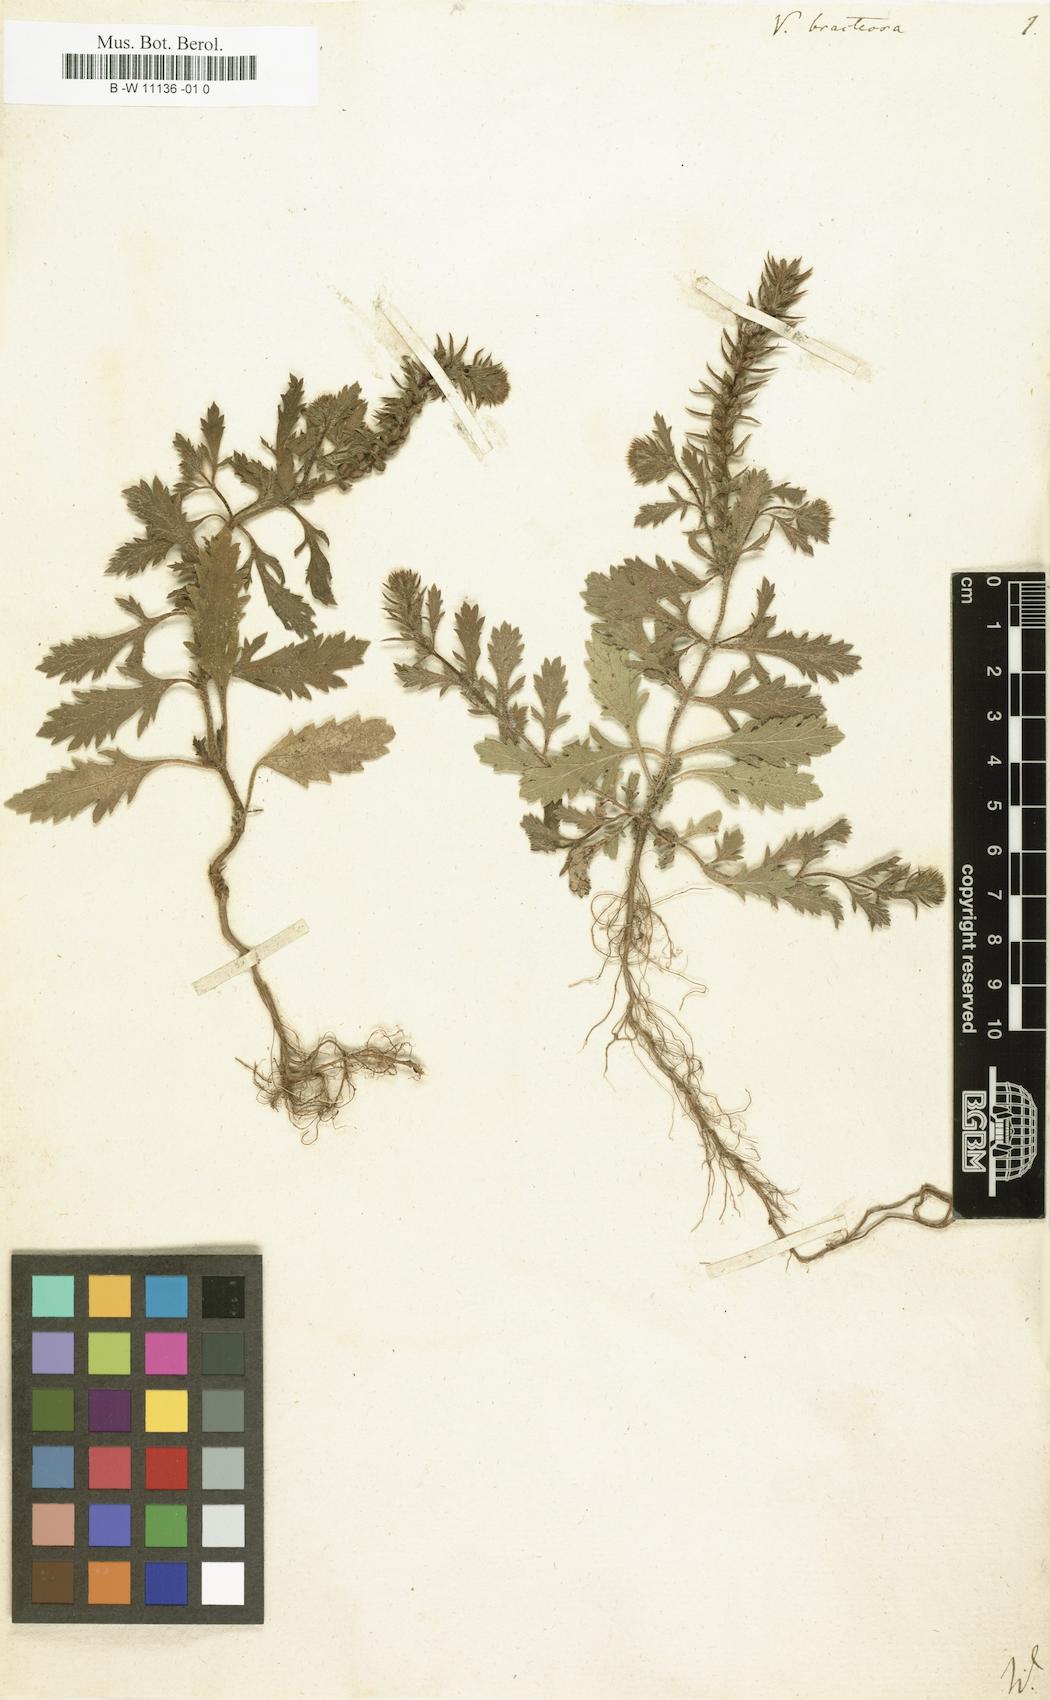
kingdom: Plantae
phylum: Tracheophyta
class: Magnoliopsida
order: Lamiales
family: Verbenaceae
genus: Verbena
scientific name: Verbena bracteata
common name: Bracted vervain
